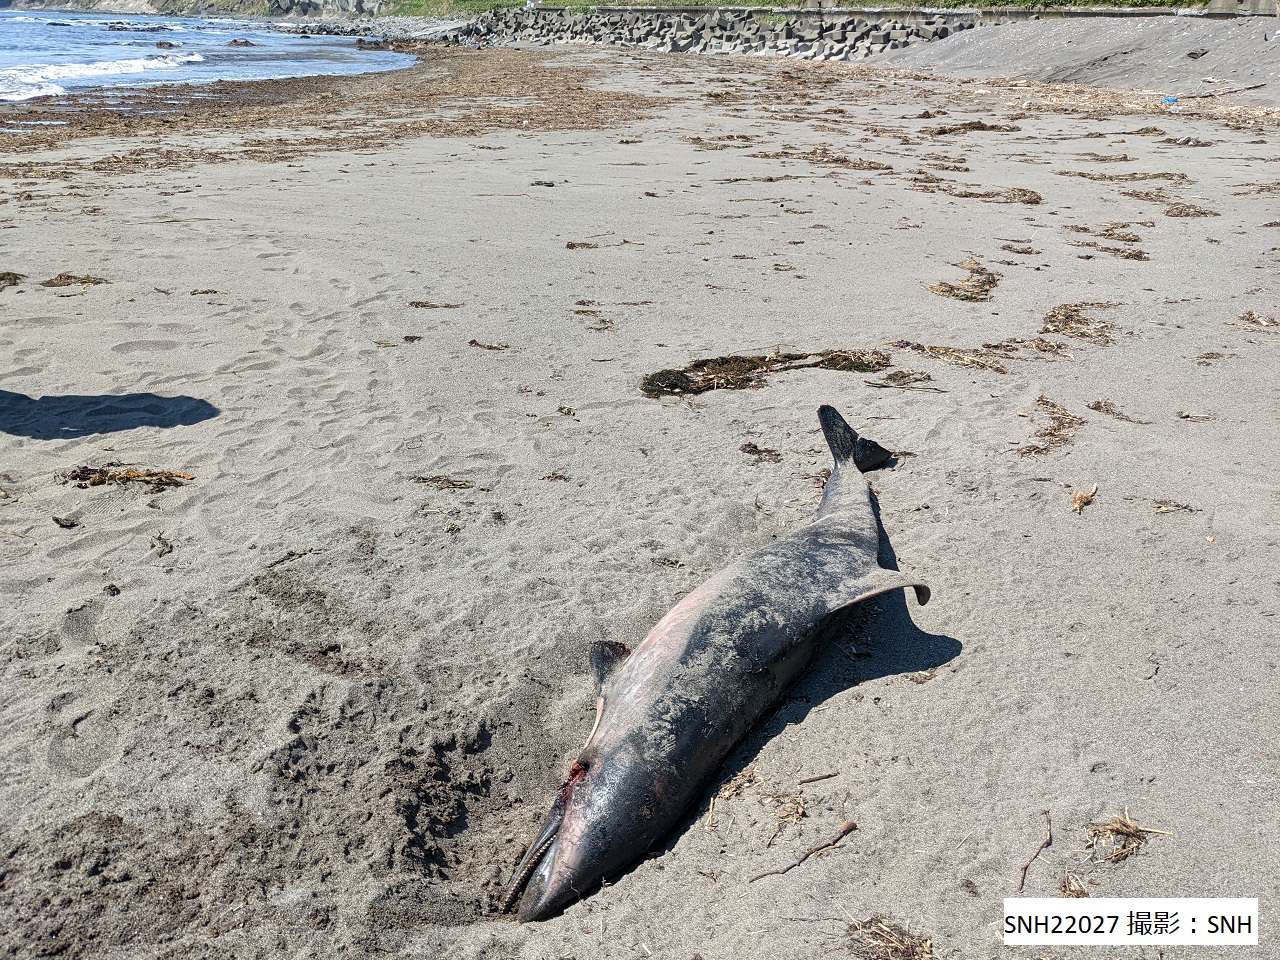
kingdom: Animalia
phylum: Chordata
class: Mammalia
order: Cetacea
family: Delphinidae
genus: Lagenorhynchus
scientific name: Lagenorhynchus obliquidens
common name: Pacific white-sided dolphin
